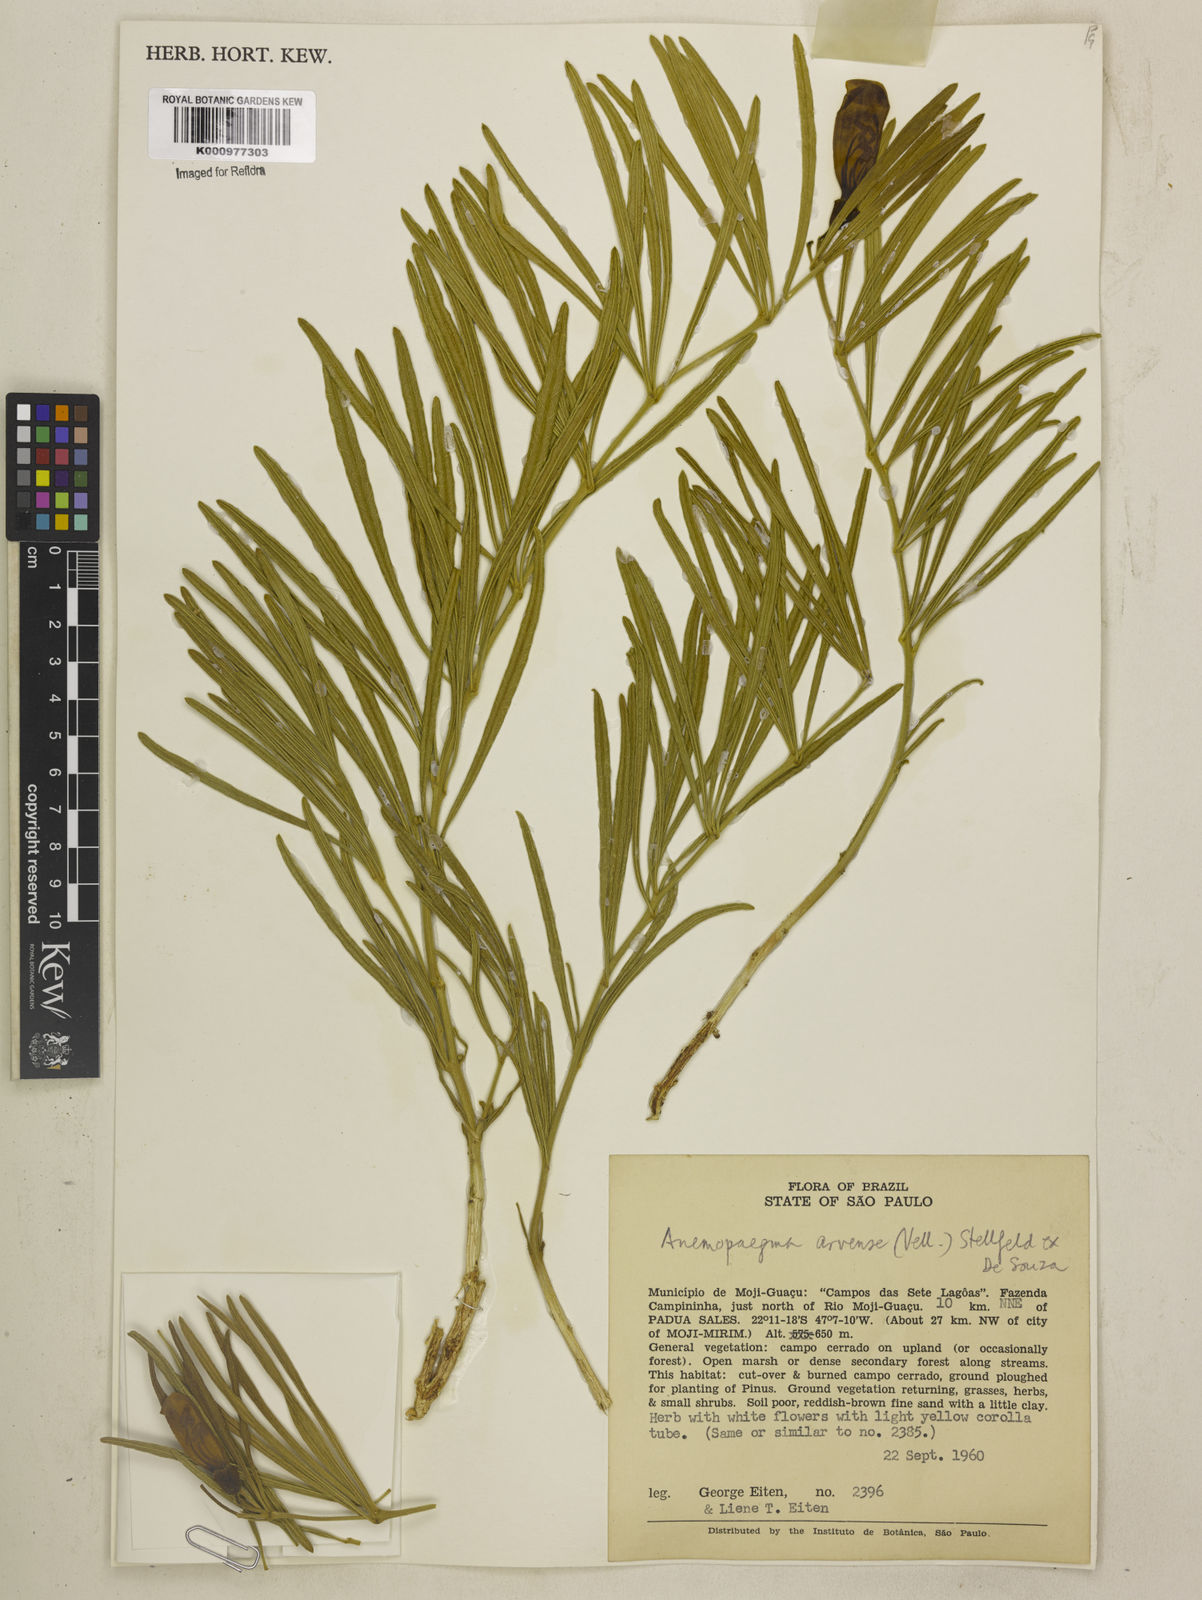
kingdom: Plantae
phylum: Tracheophyta
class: Magnoliopsida
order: Lamiales
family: Bignoniaceae
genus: Anemopaegma
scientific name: Anemopaegma arvense
